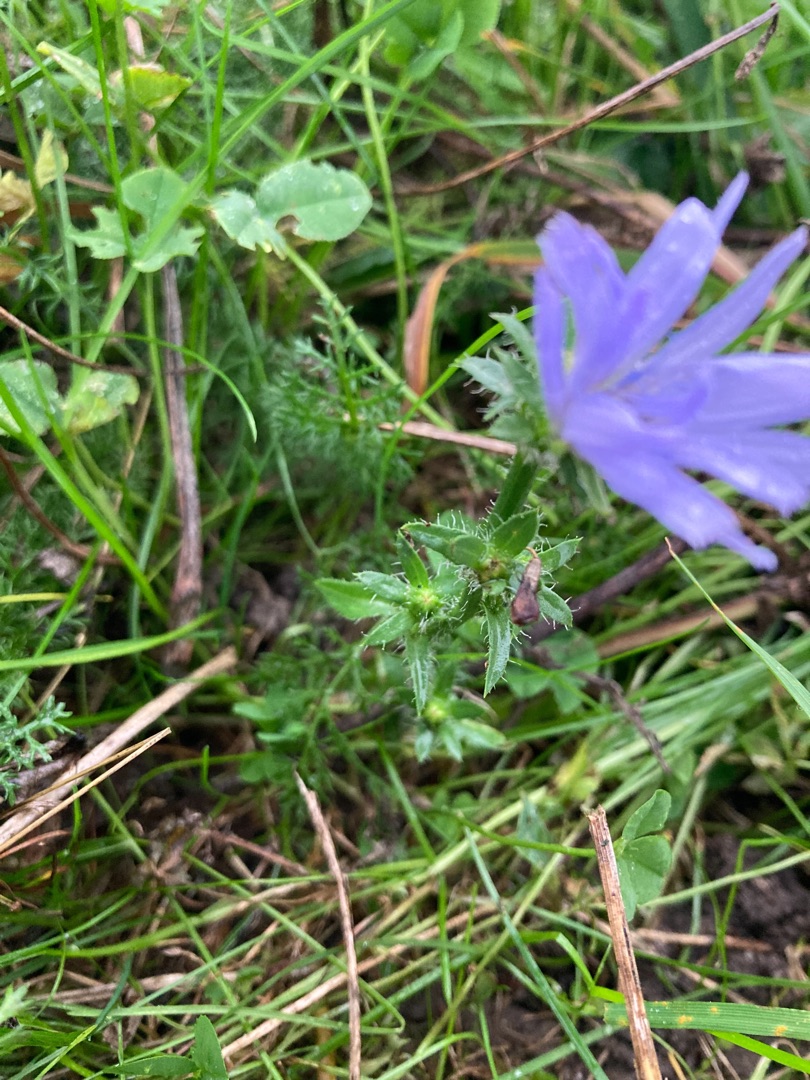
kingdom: Plantae
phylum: Tracheophyta
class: Magnoliopsida
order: Asterales
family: Asteraceae
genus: Cichorium
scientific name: Cichorium intybus
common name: Cikorie
